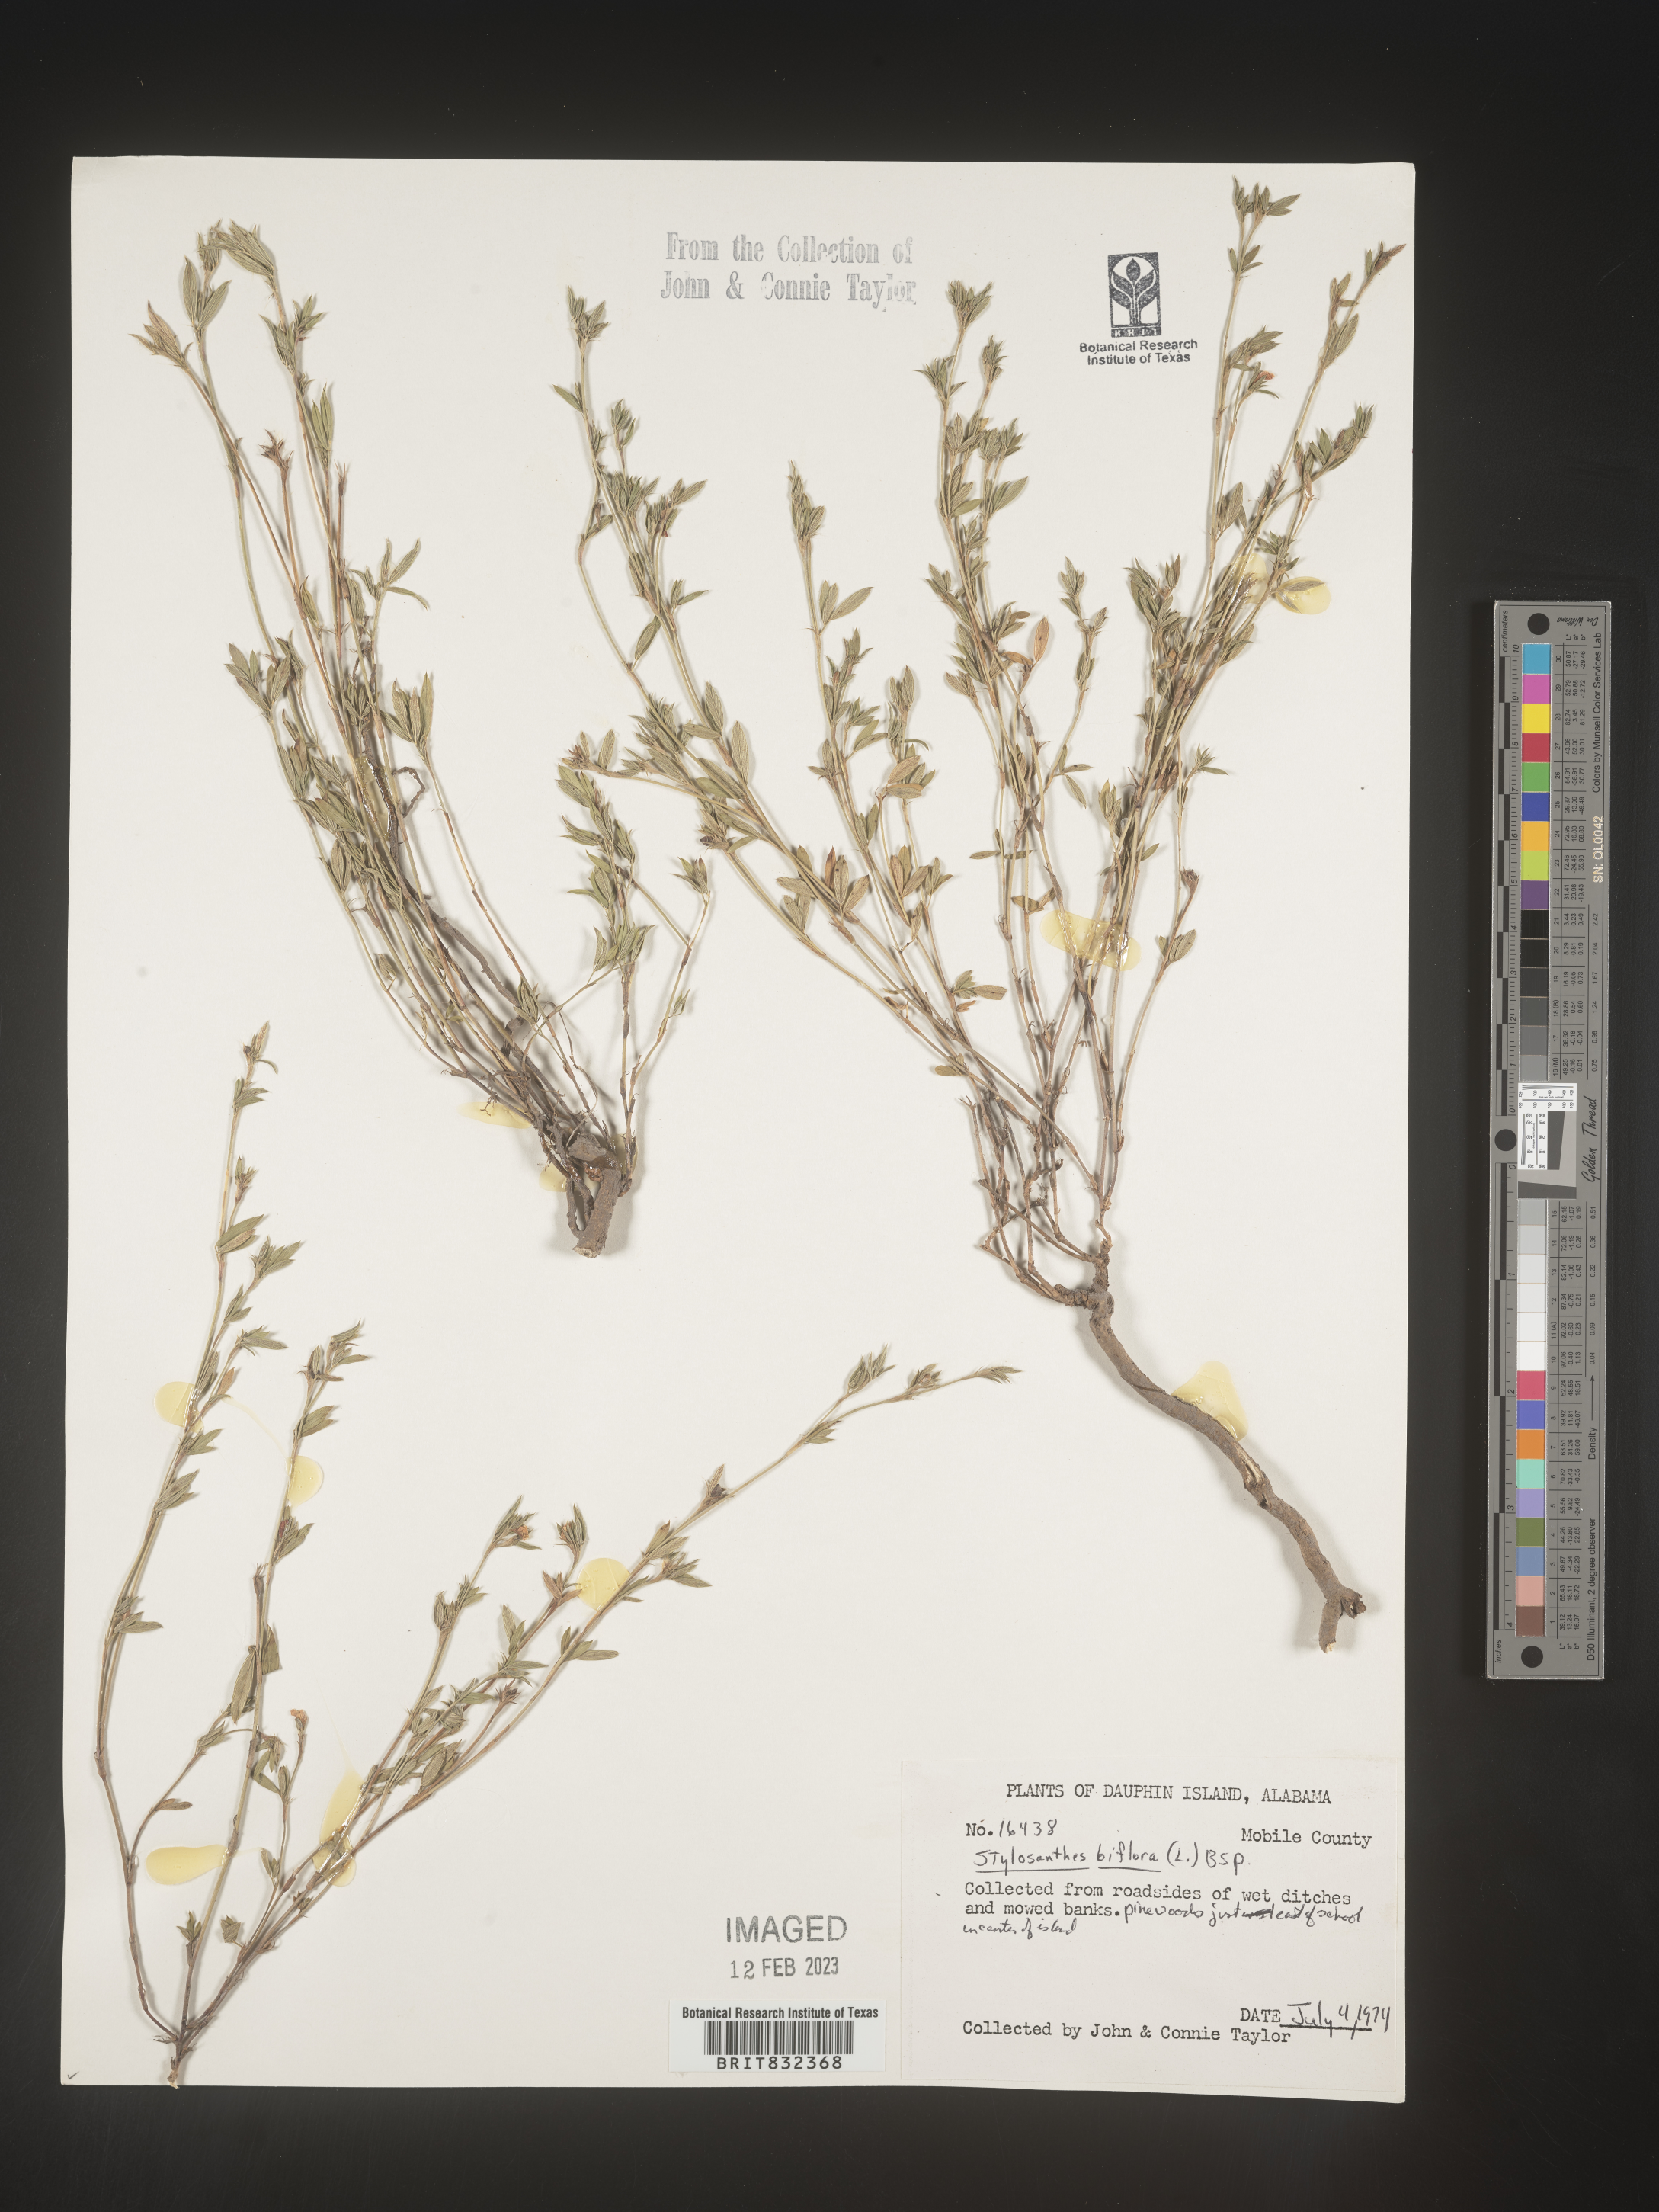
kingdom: Plantae
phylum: Tracheophyta
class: Magnoliopsida
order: Fabales
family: Fabaceae
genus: Stylosanthes
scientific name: Stylosanthes biflora
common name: Two-flower pencil-flower
